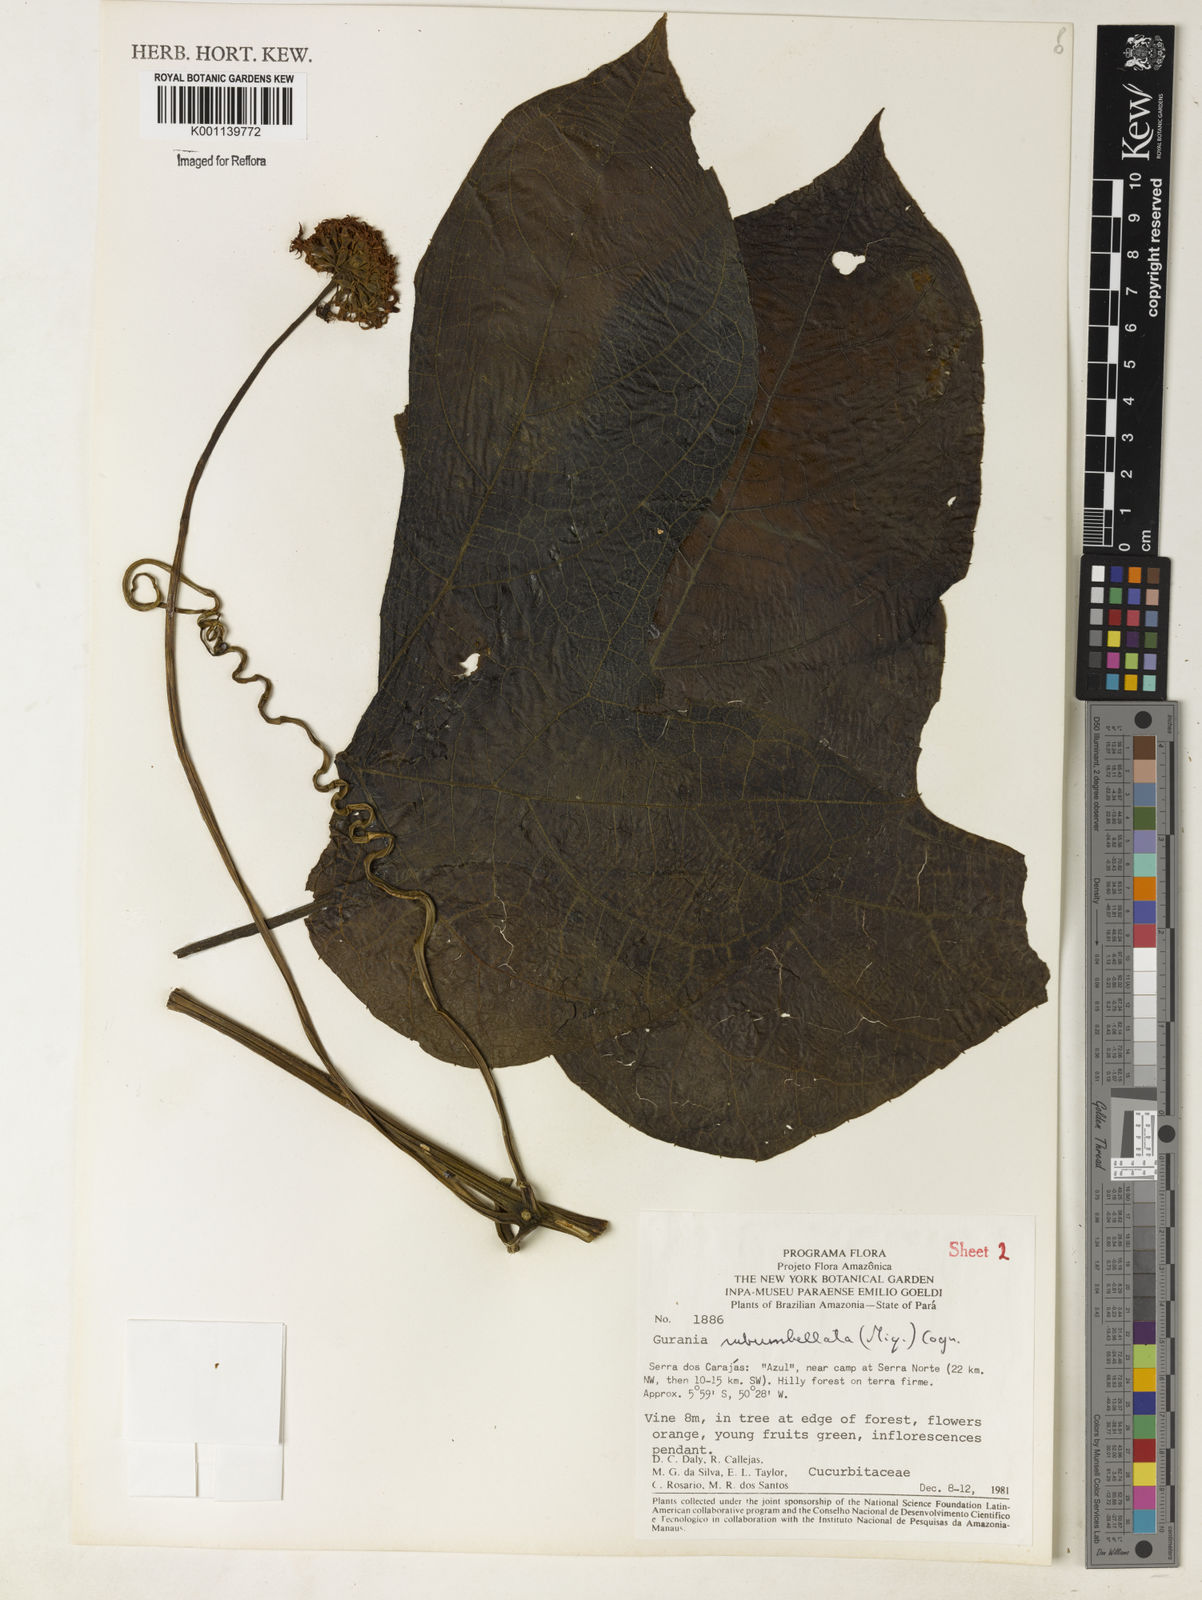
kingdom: Plantae
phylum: Tracheophyta
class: Magnoliopsida
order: Cucurbitales
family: Cucurbitaceae
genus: Gurania
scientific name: Gurania subumbellata
